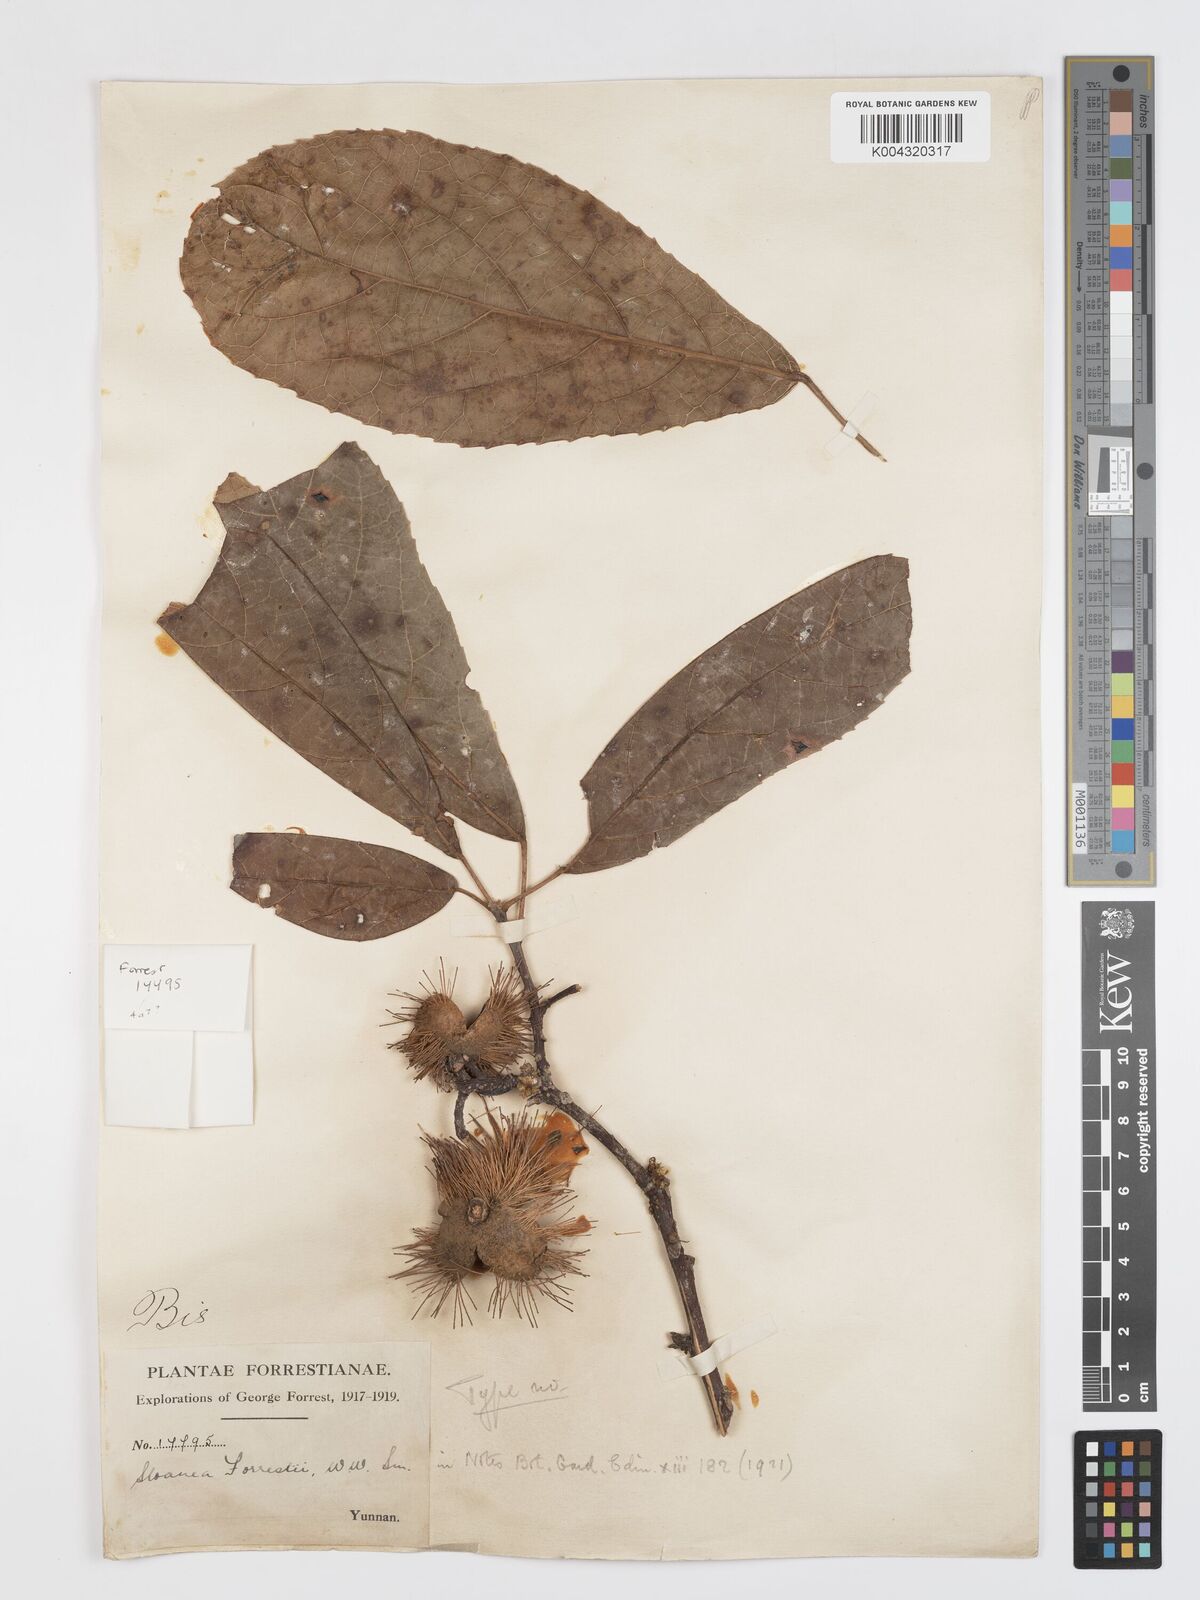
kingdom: Plantae
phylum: Tracheophyta
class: Magnoliopsida
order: Oxalidales
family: Elaeocarpaceae
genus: Sloanea
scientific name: Sloanea sterculiacea
